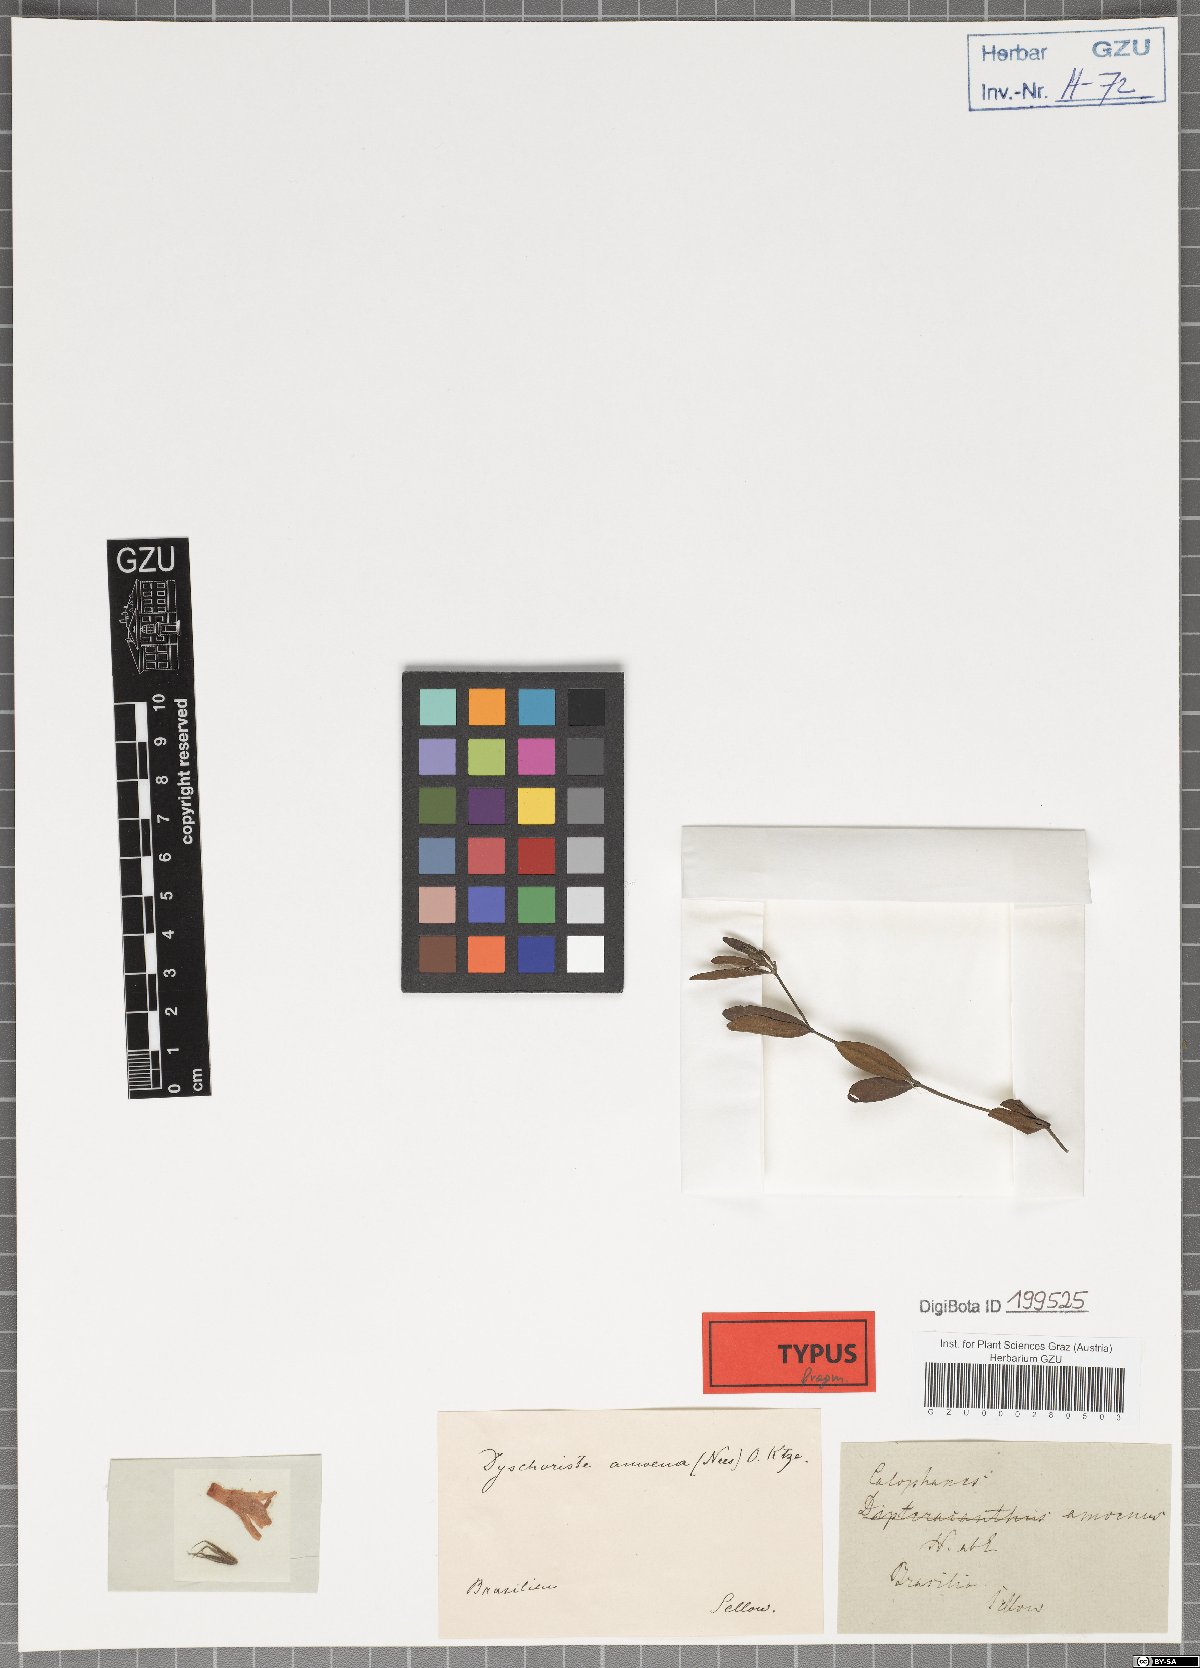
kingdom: Plantae
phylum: Tracheophyta
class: Magnoliopsida
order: Lamiales
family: Acanthaceae
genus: Dyschoriste
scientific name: Dyschoriste lavandulacea
